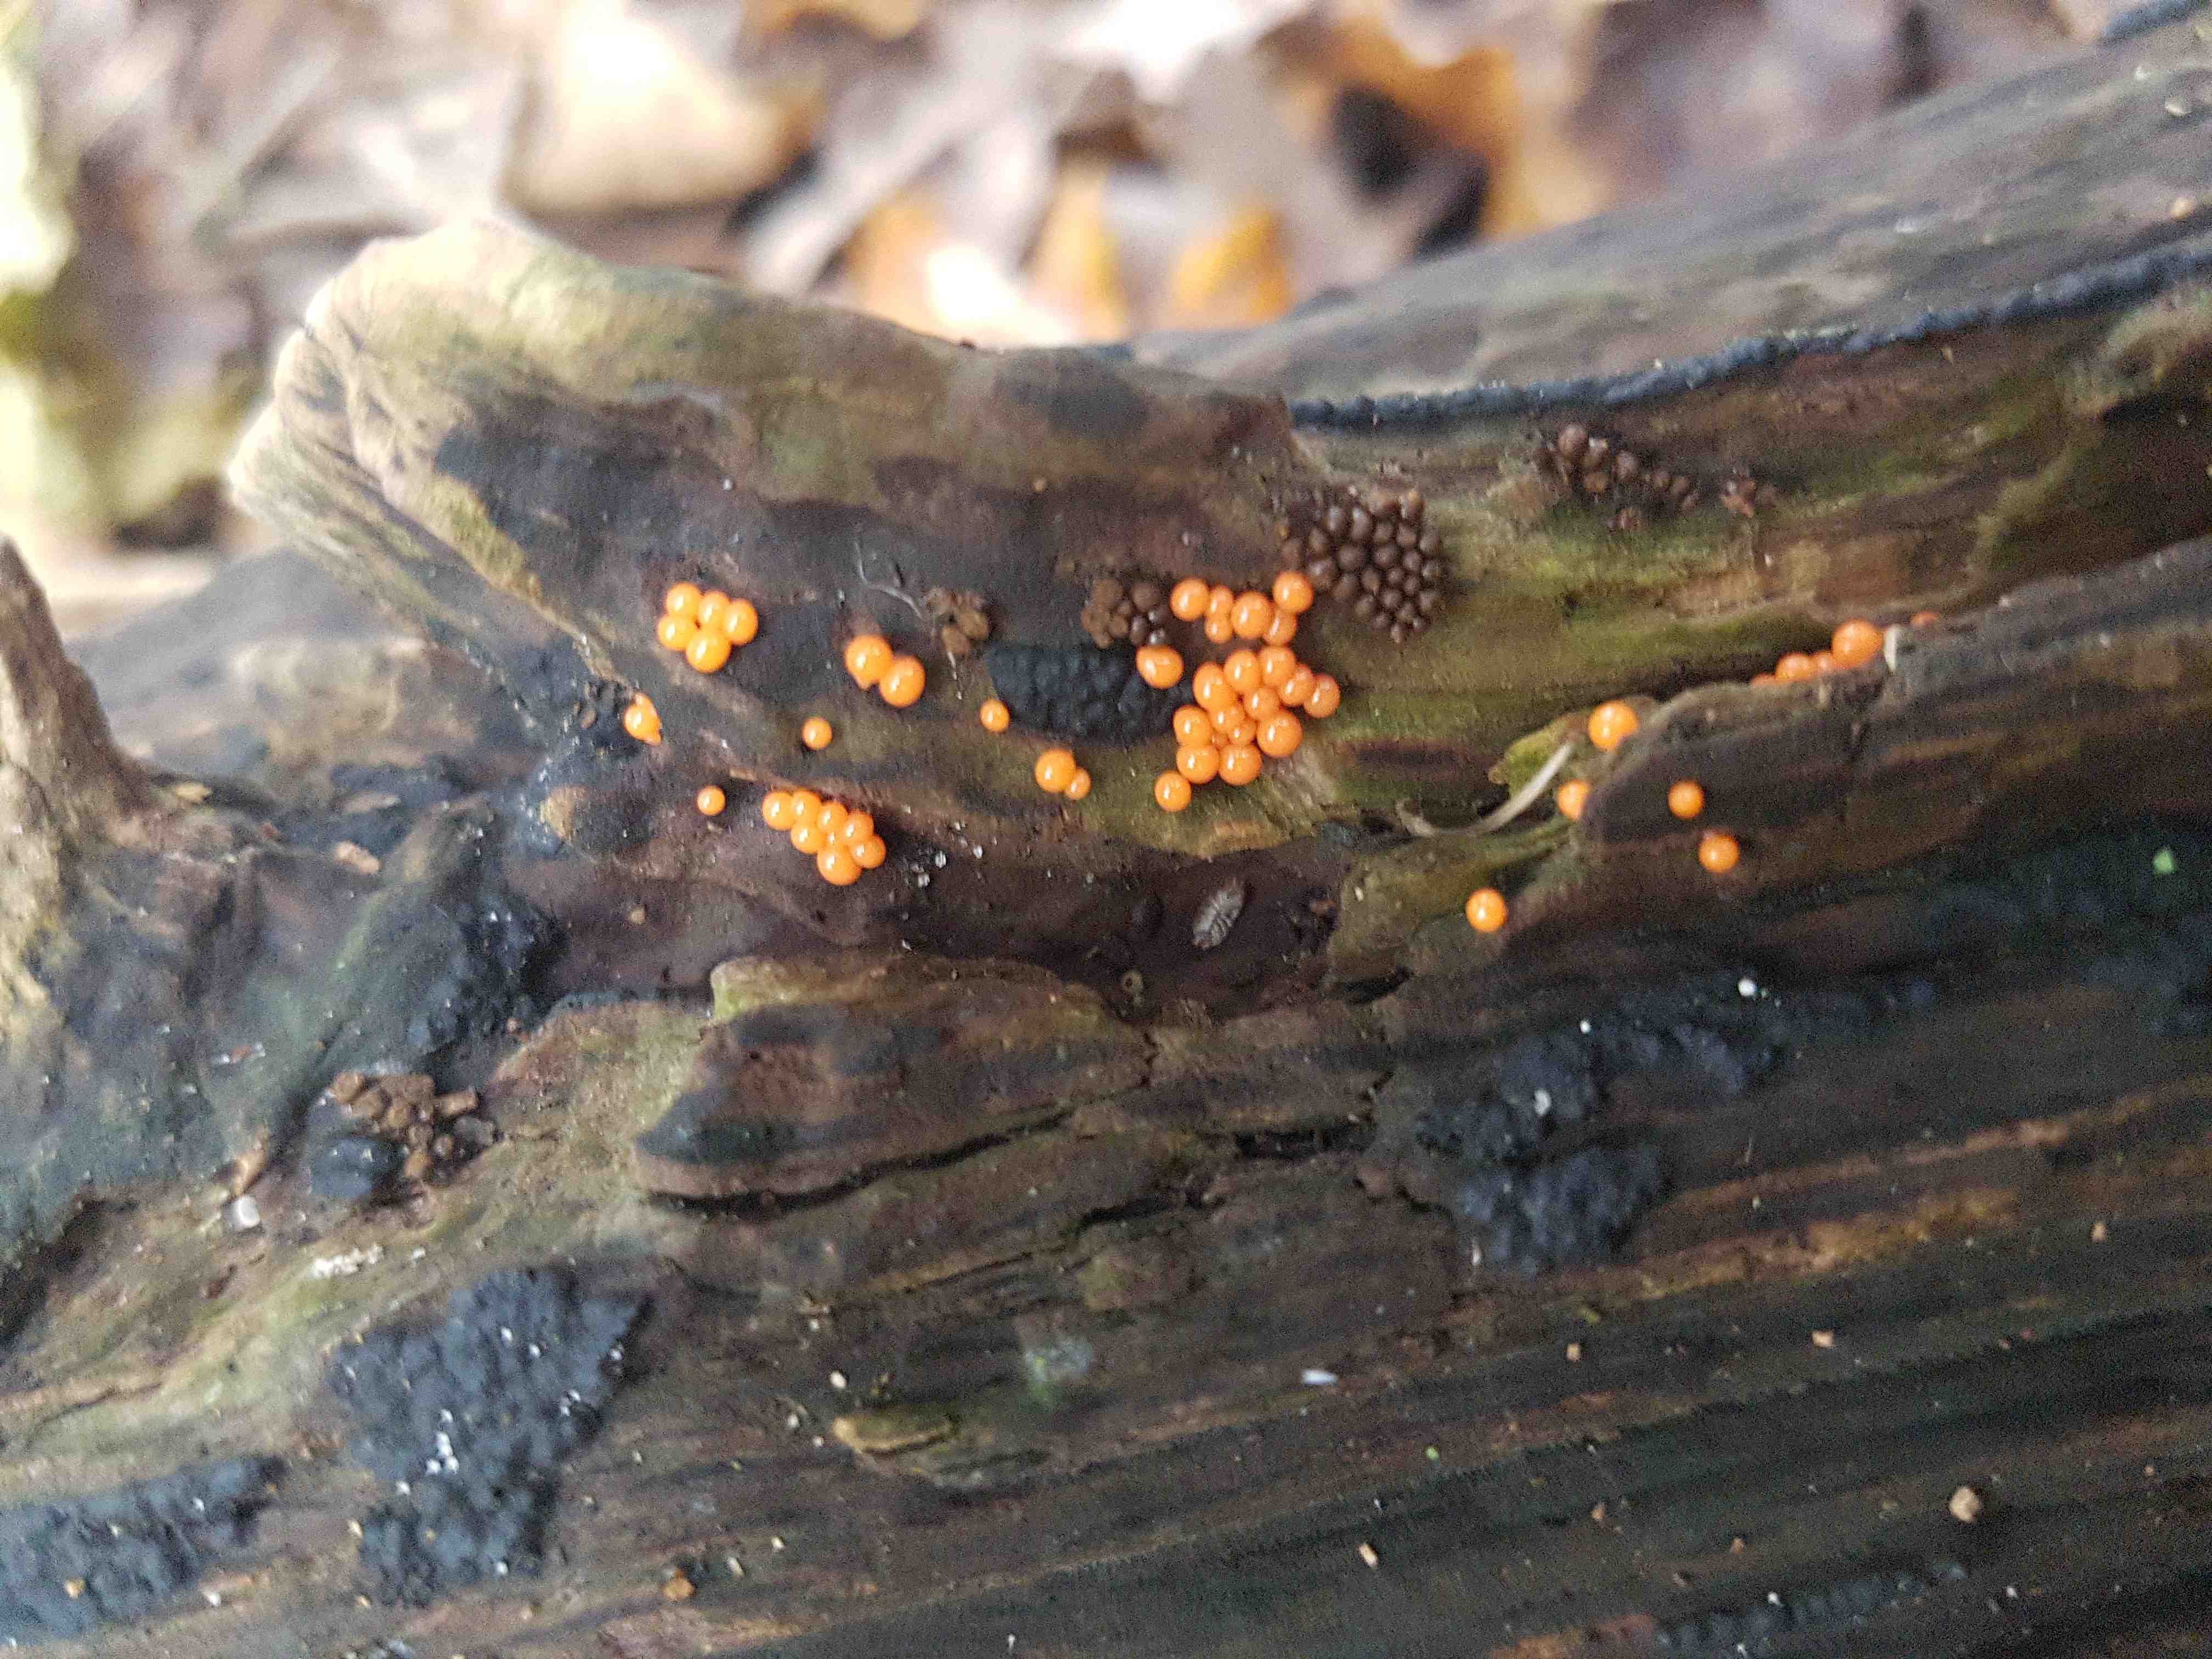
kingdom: Protozoa
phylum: Mycetozoa
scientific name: Mycetozoa
